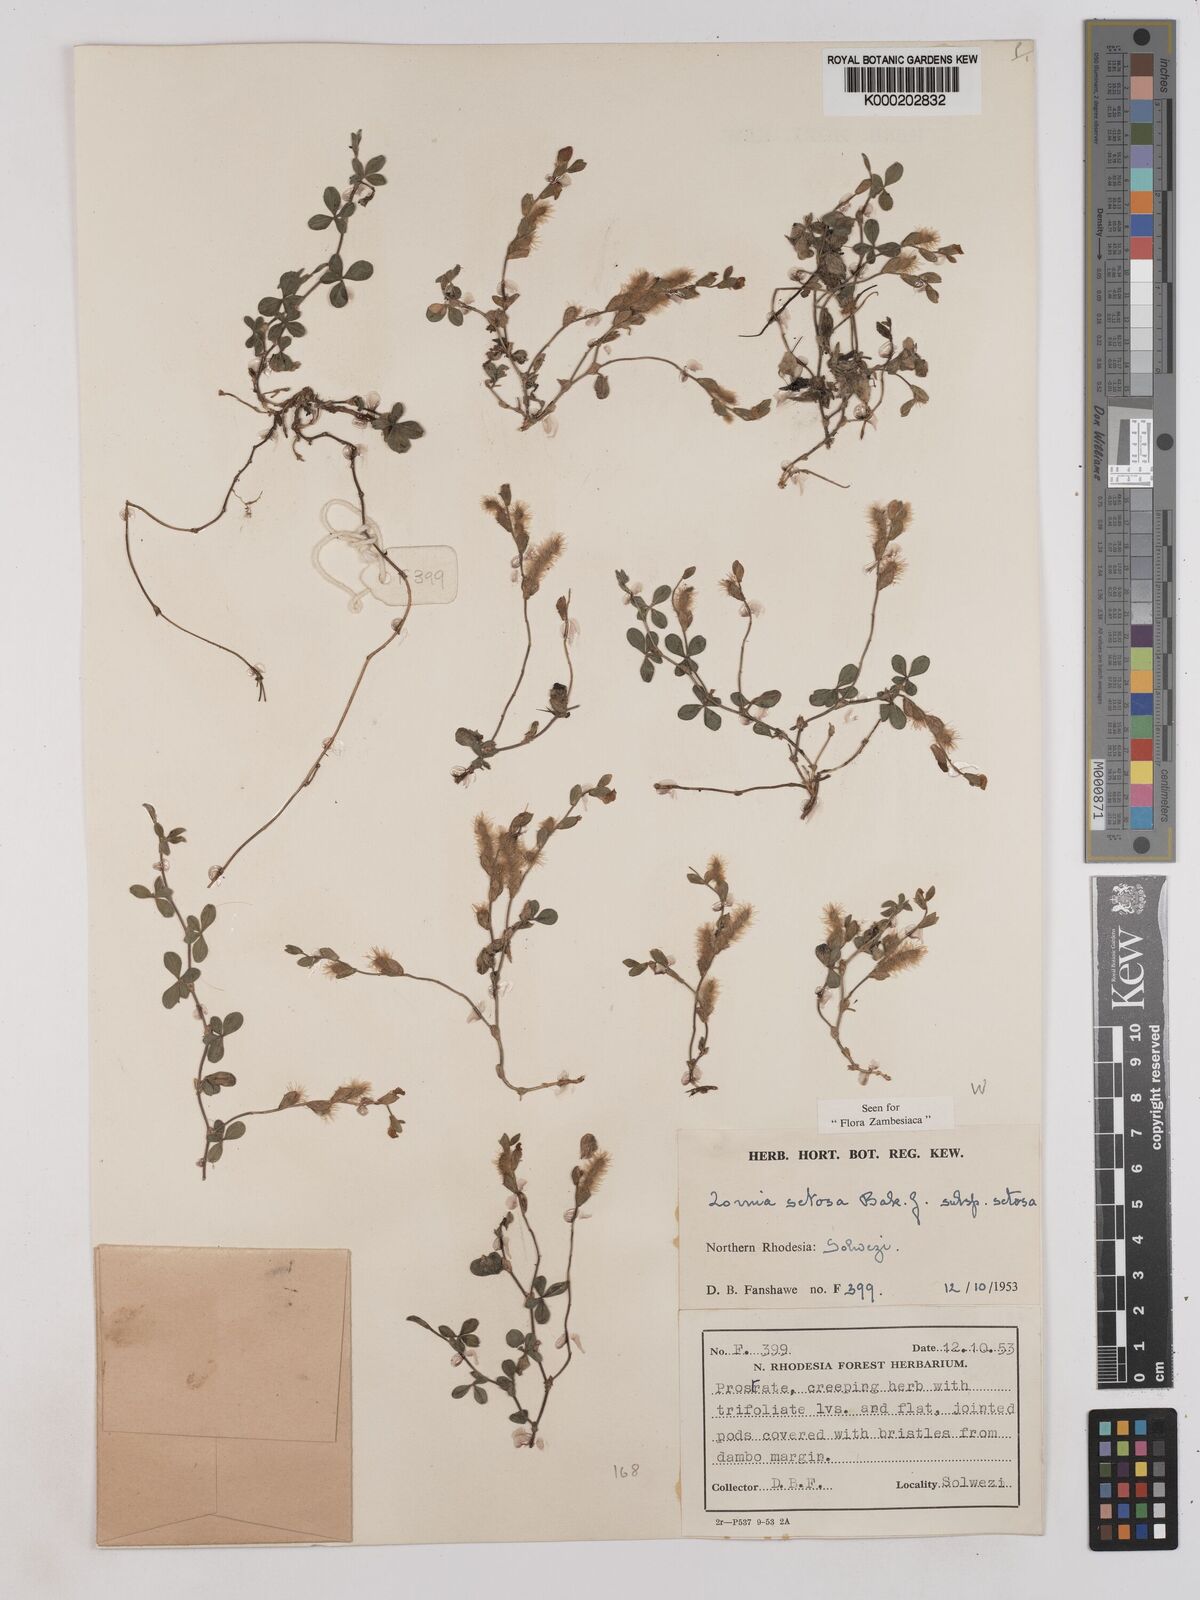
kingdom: Plantae
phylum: Tracheophyta
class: Magnoliopsida
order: Fabales
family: Fabaceae
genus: Zornia
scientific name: Zornia setosa
